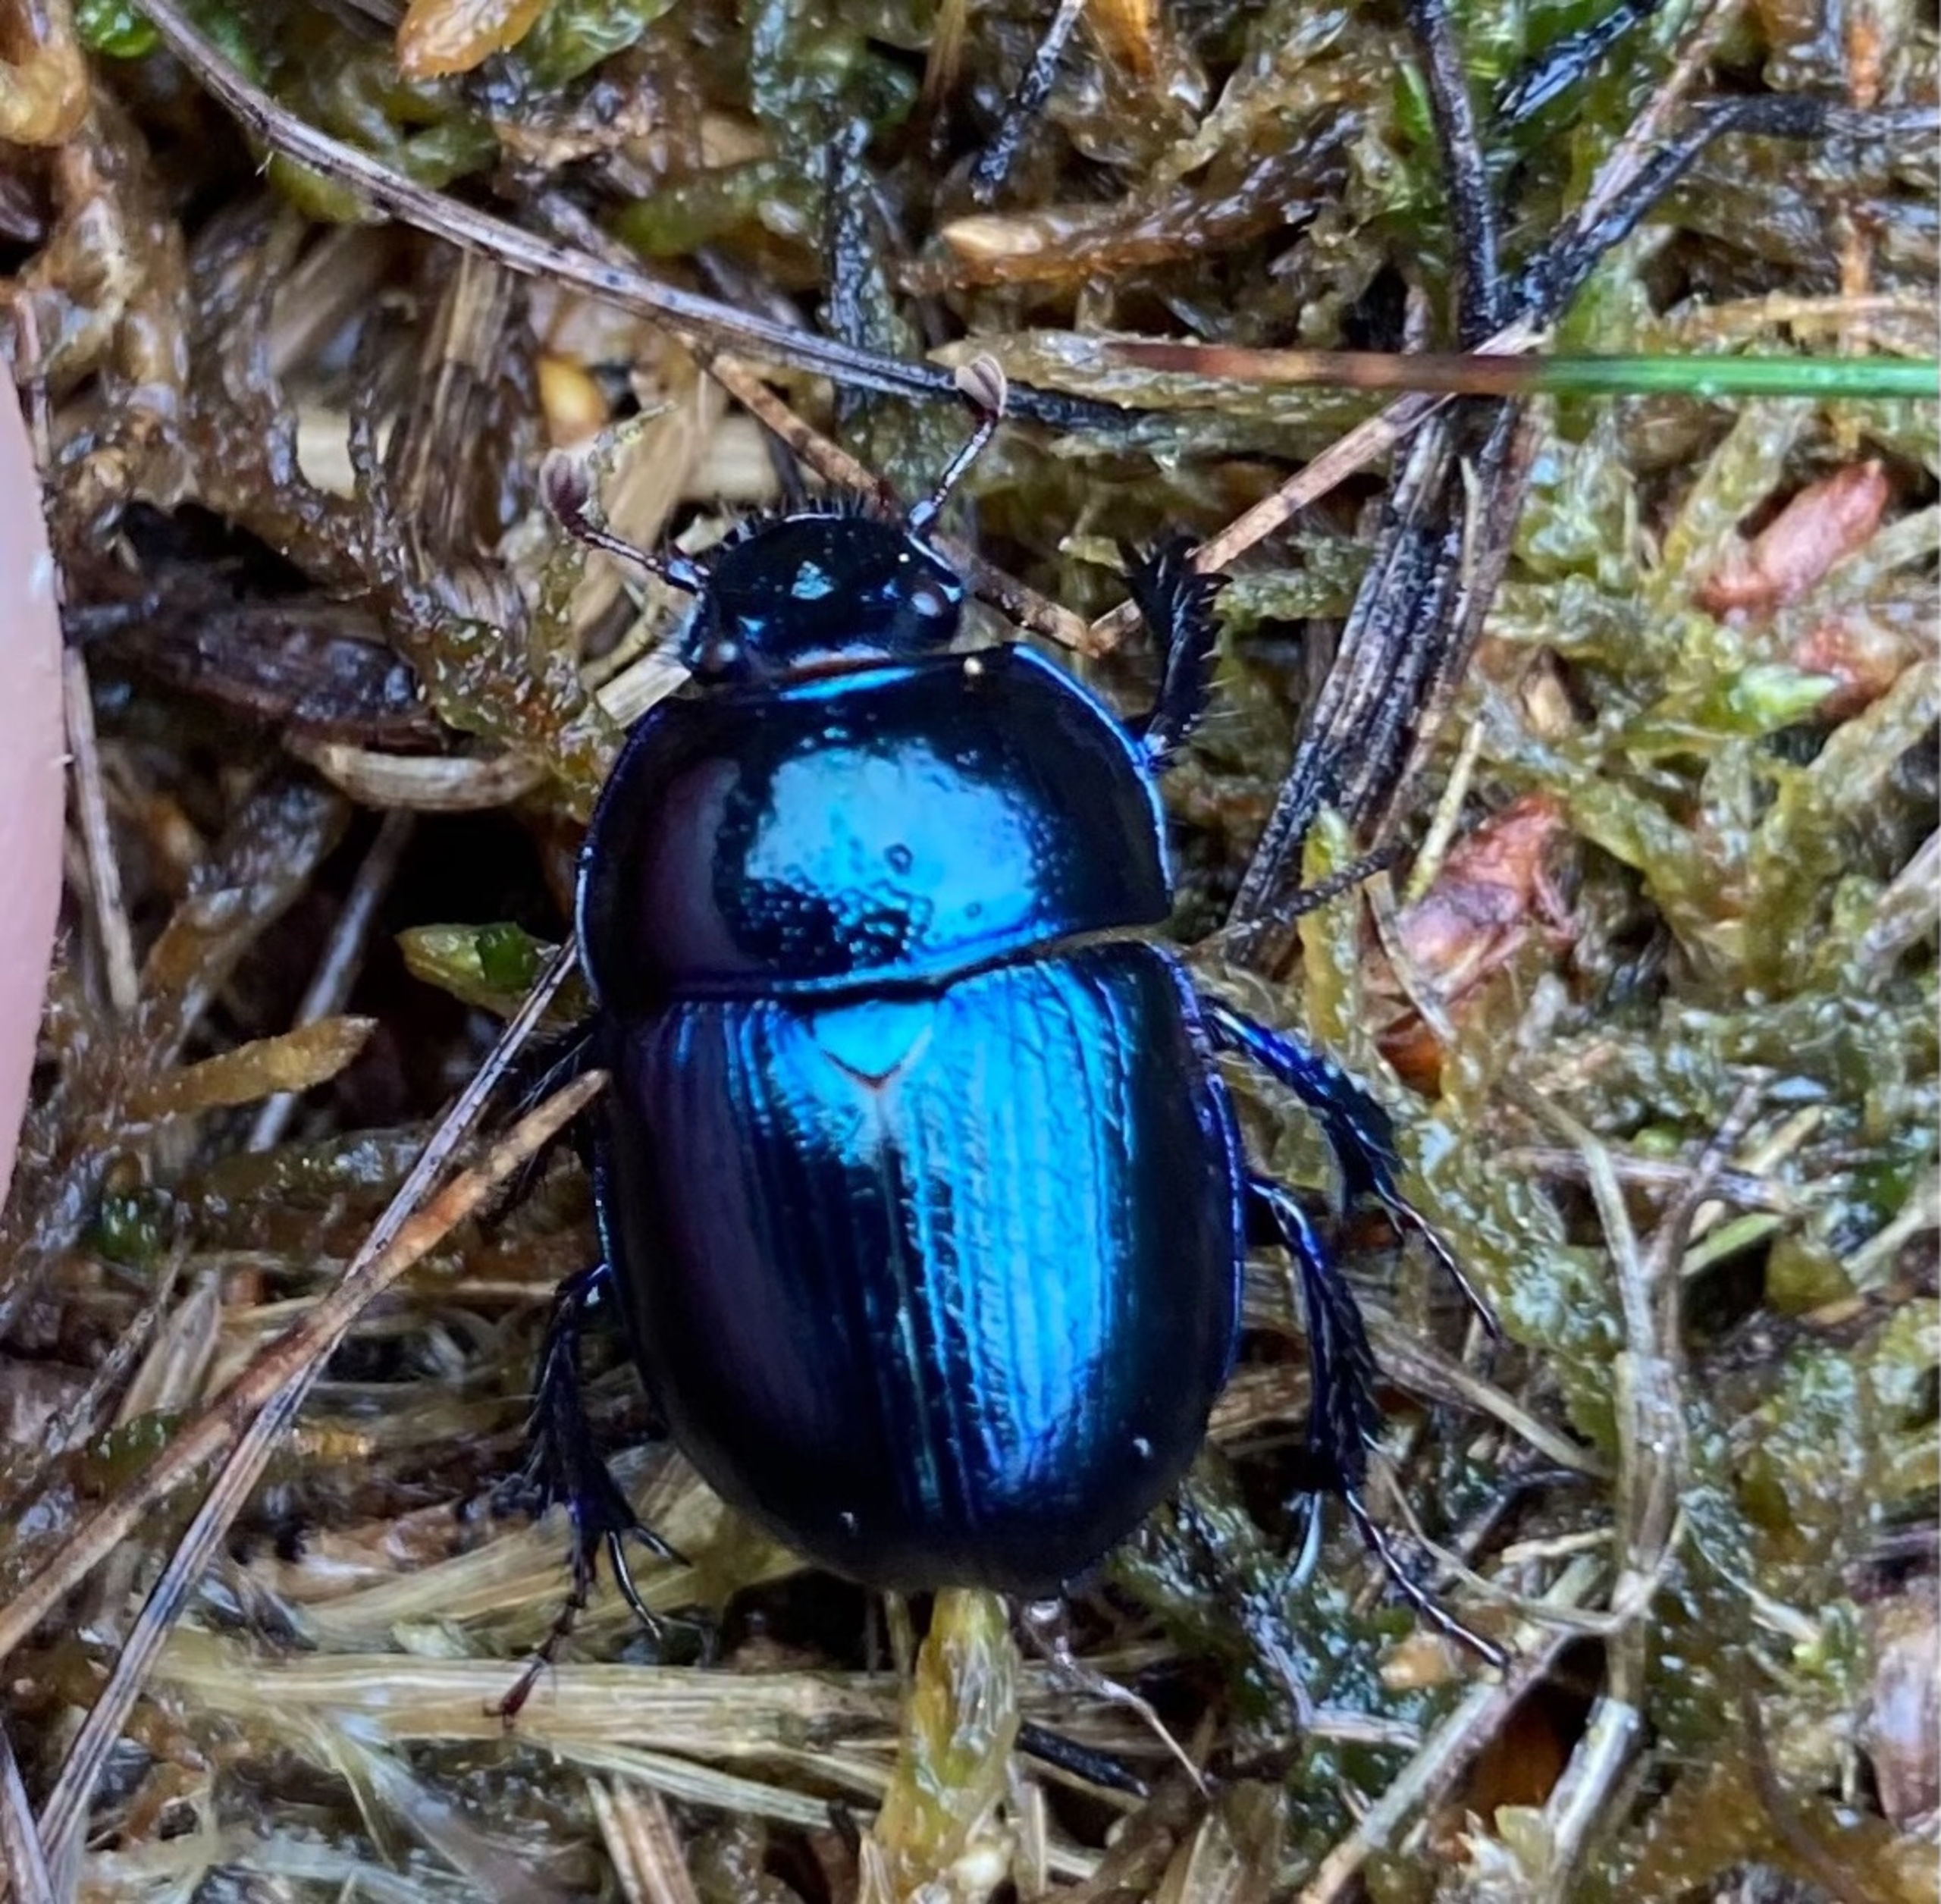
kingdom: Animalia
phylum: Arthropoda
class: Insecta
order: Coleoptera
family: Geotrupidae
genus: Anoplotrupes
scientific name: Anoplotrupes stercorosus
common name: Skovskarnbasse
